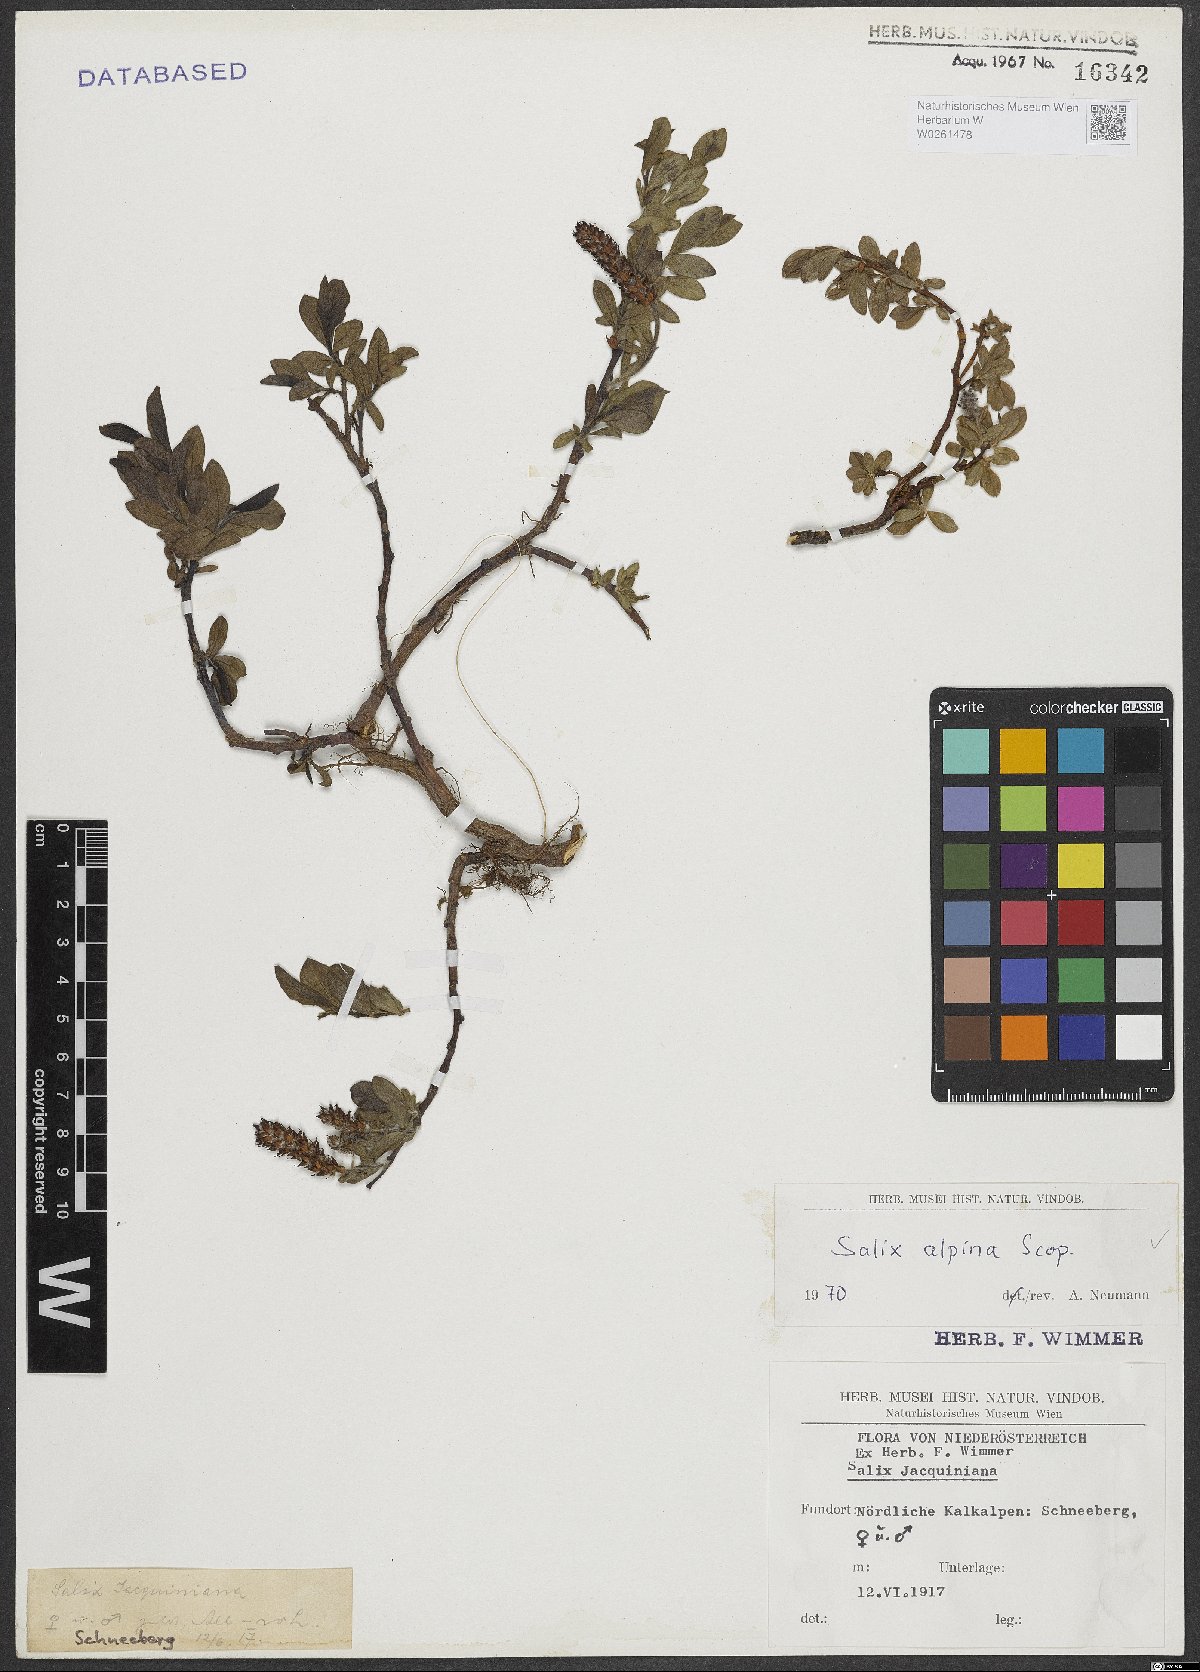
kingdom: Plantae
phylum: Tracheophyta
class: Magnoliopsida
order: Malpighiales
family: Salicaceae
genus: Salix
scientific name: Salix alpina
